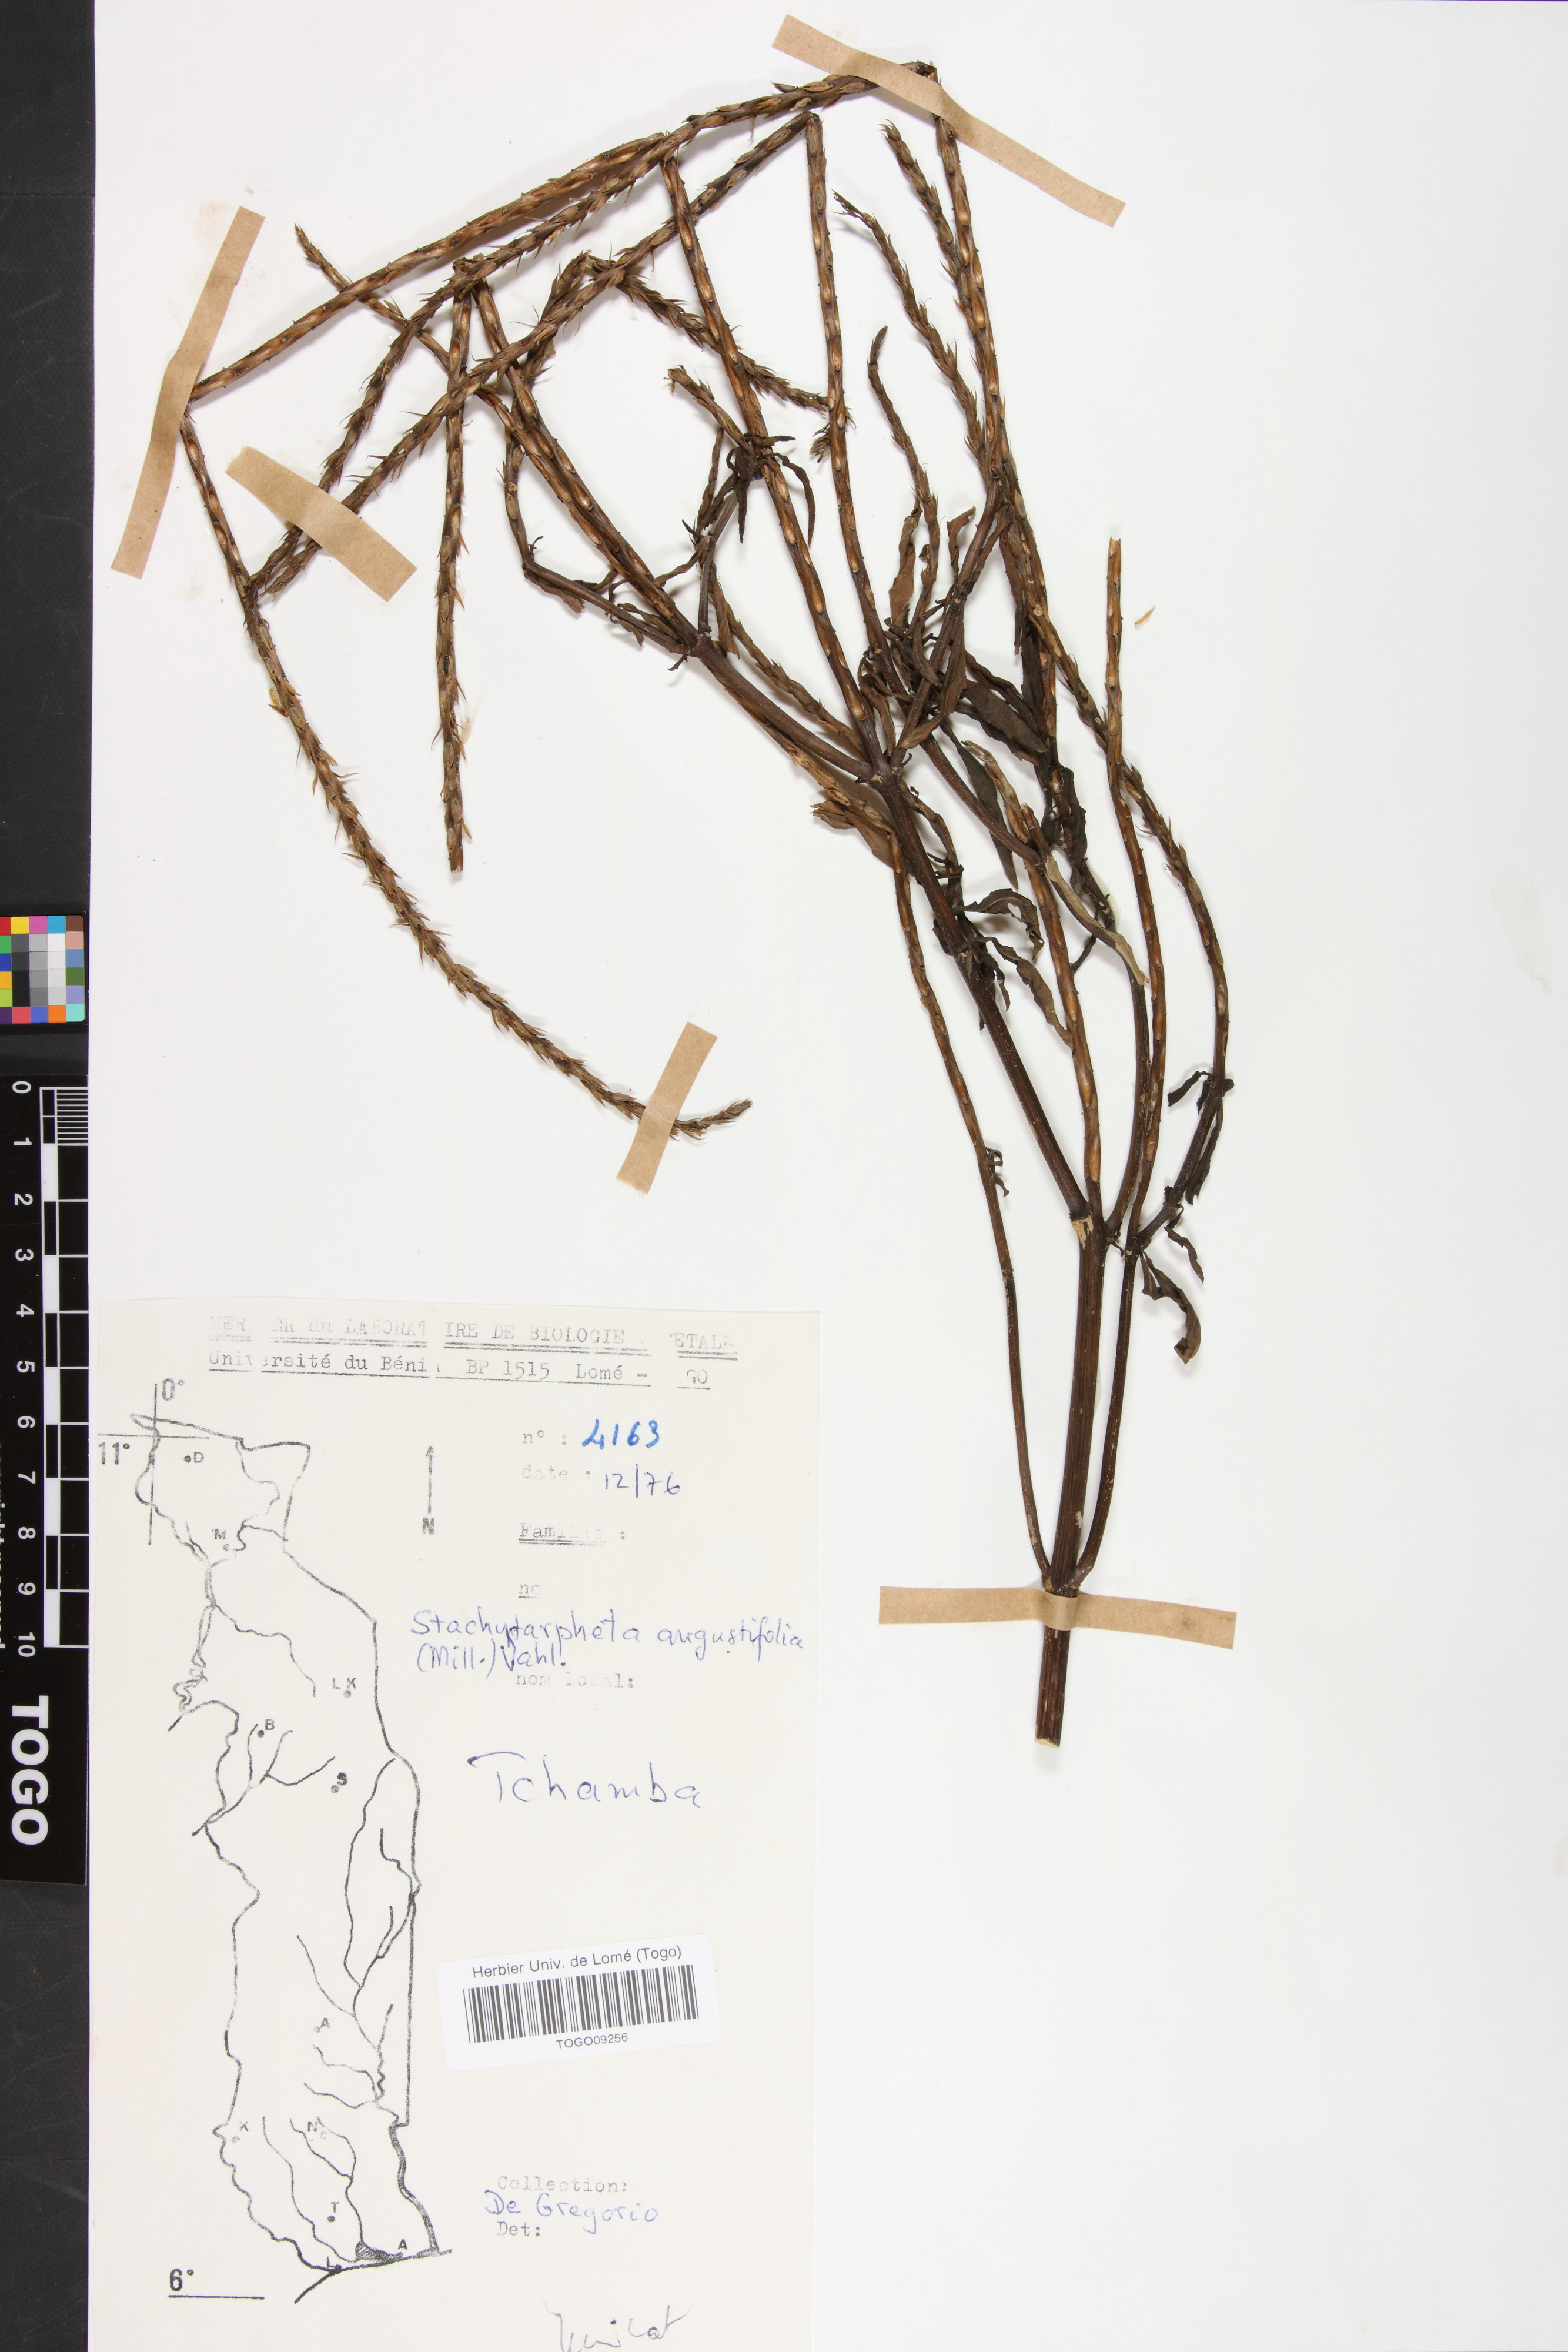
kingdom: Plantae
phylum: Tracheophyta
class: Magnoliopsida
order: Lamiales
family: Verbenaceae
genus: Stachytarpheta
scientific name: Stachytarpheta indica
